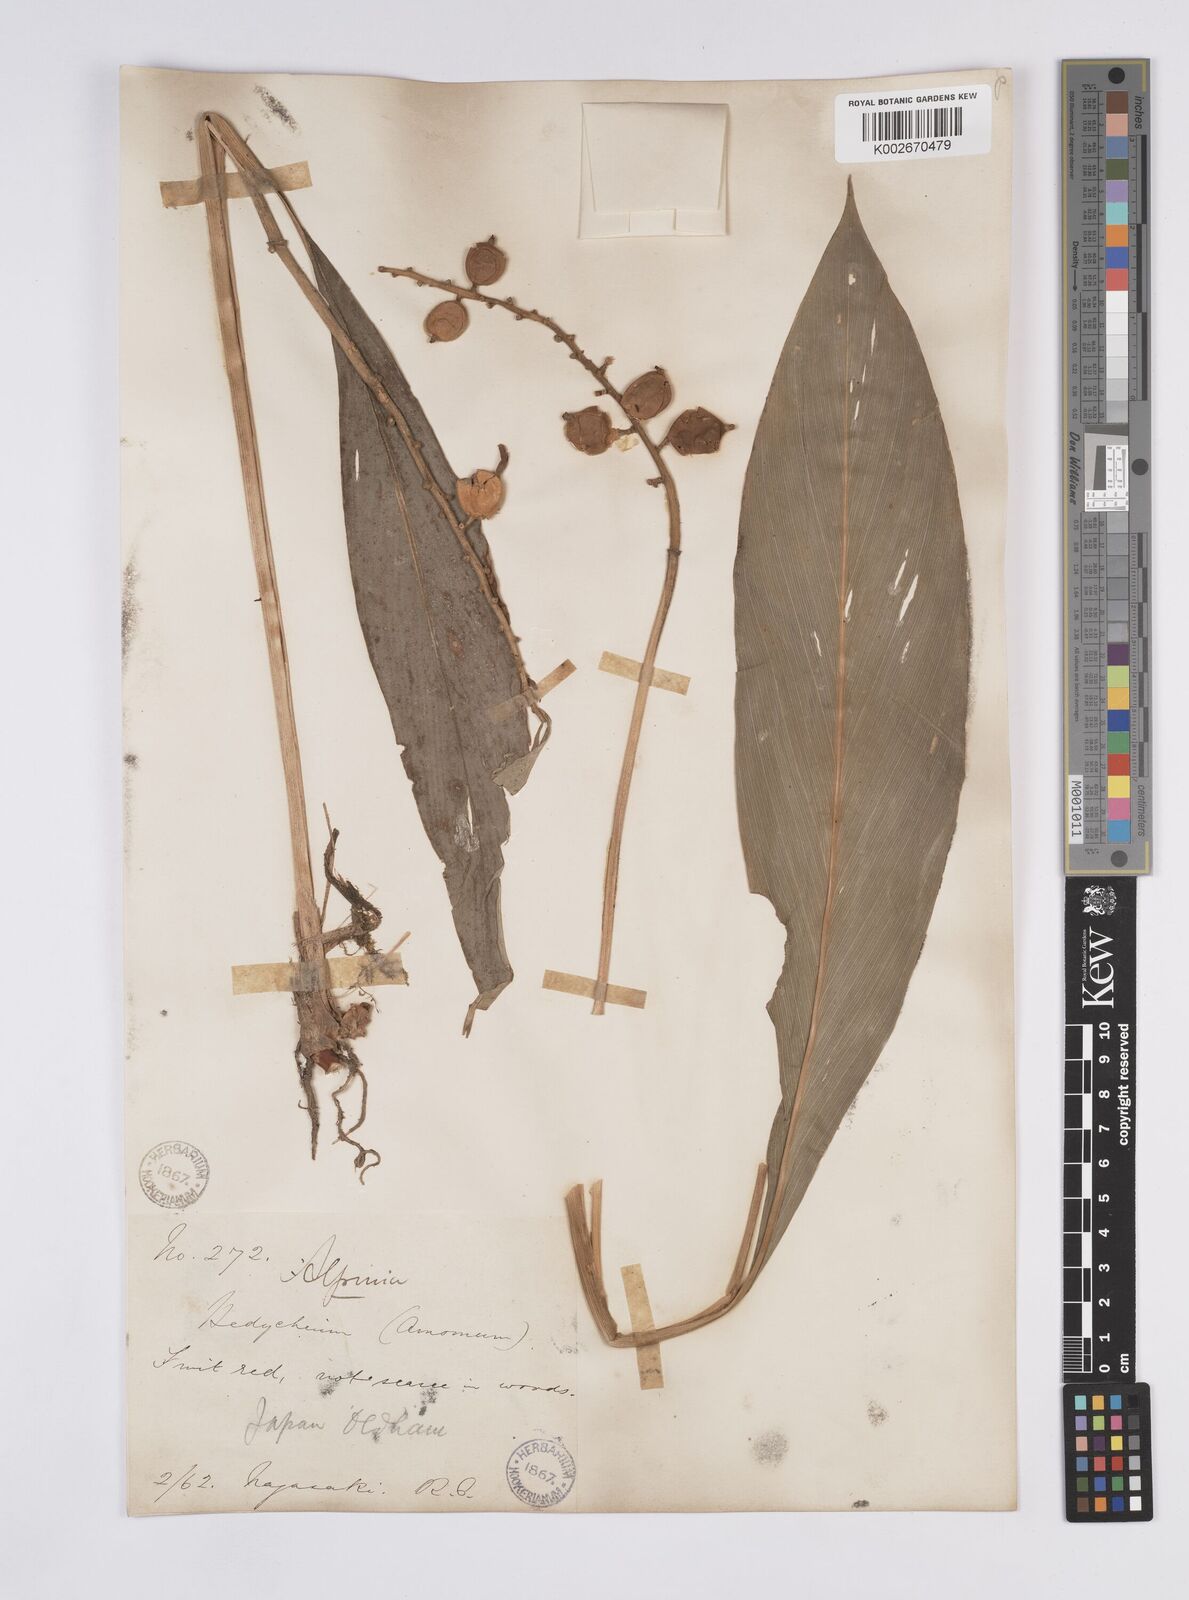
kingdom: Plantae
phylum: Tracheophyta
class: Liliopsida
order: Zingiberales
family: Zingiberaceae
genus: Alpinia
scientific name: Alpinia japonica
